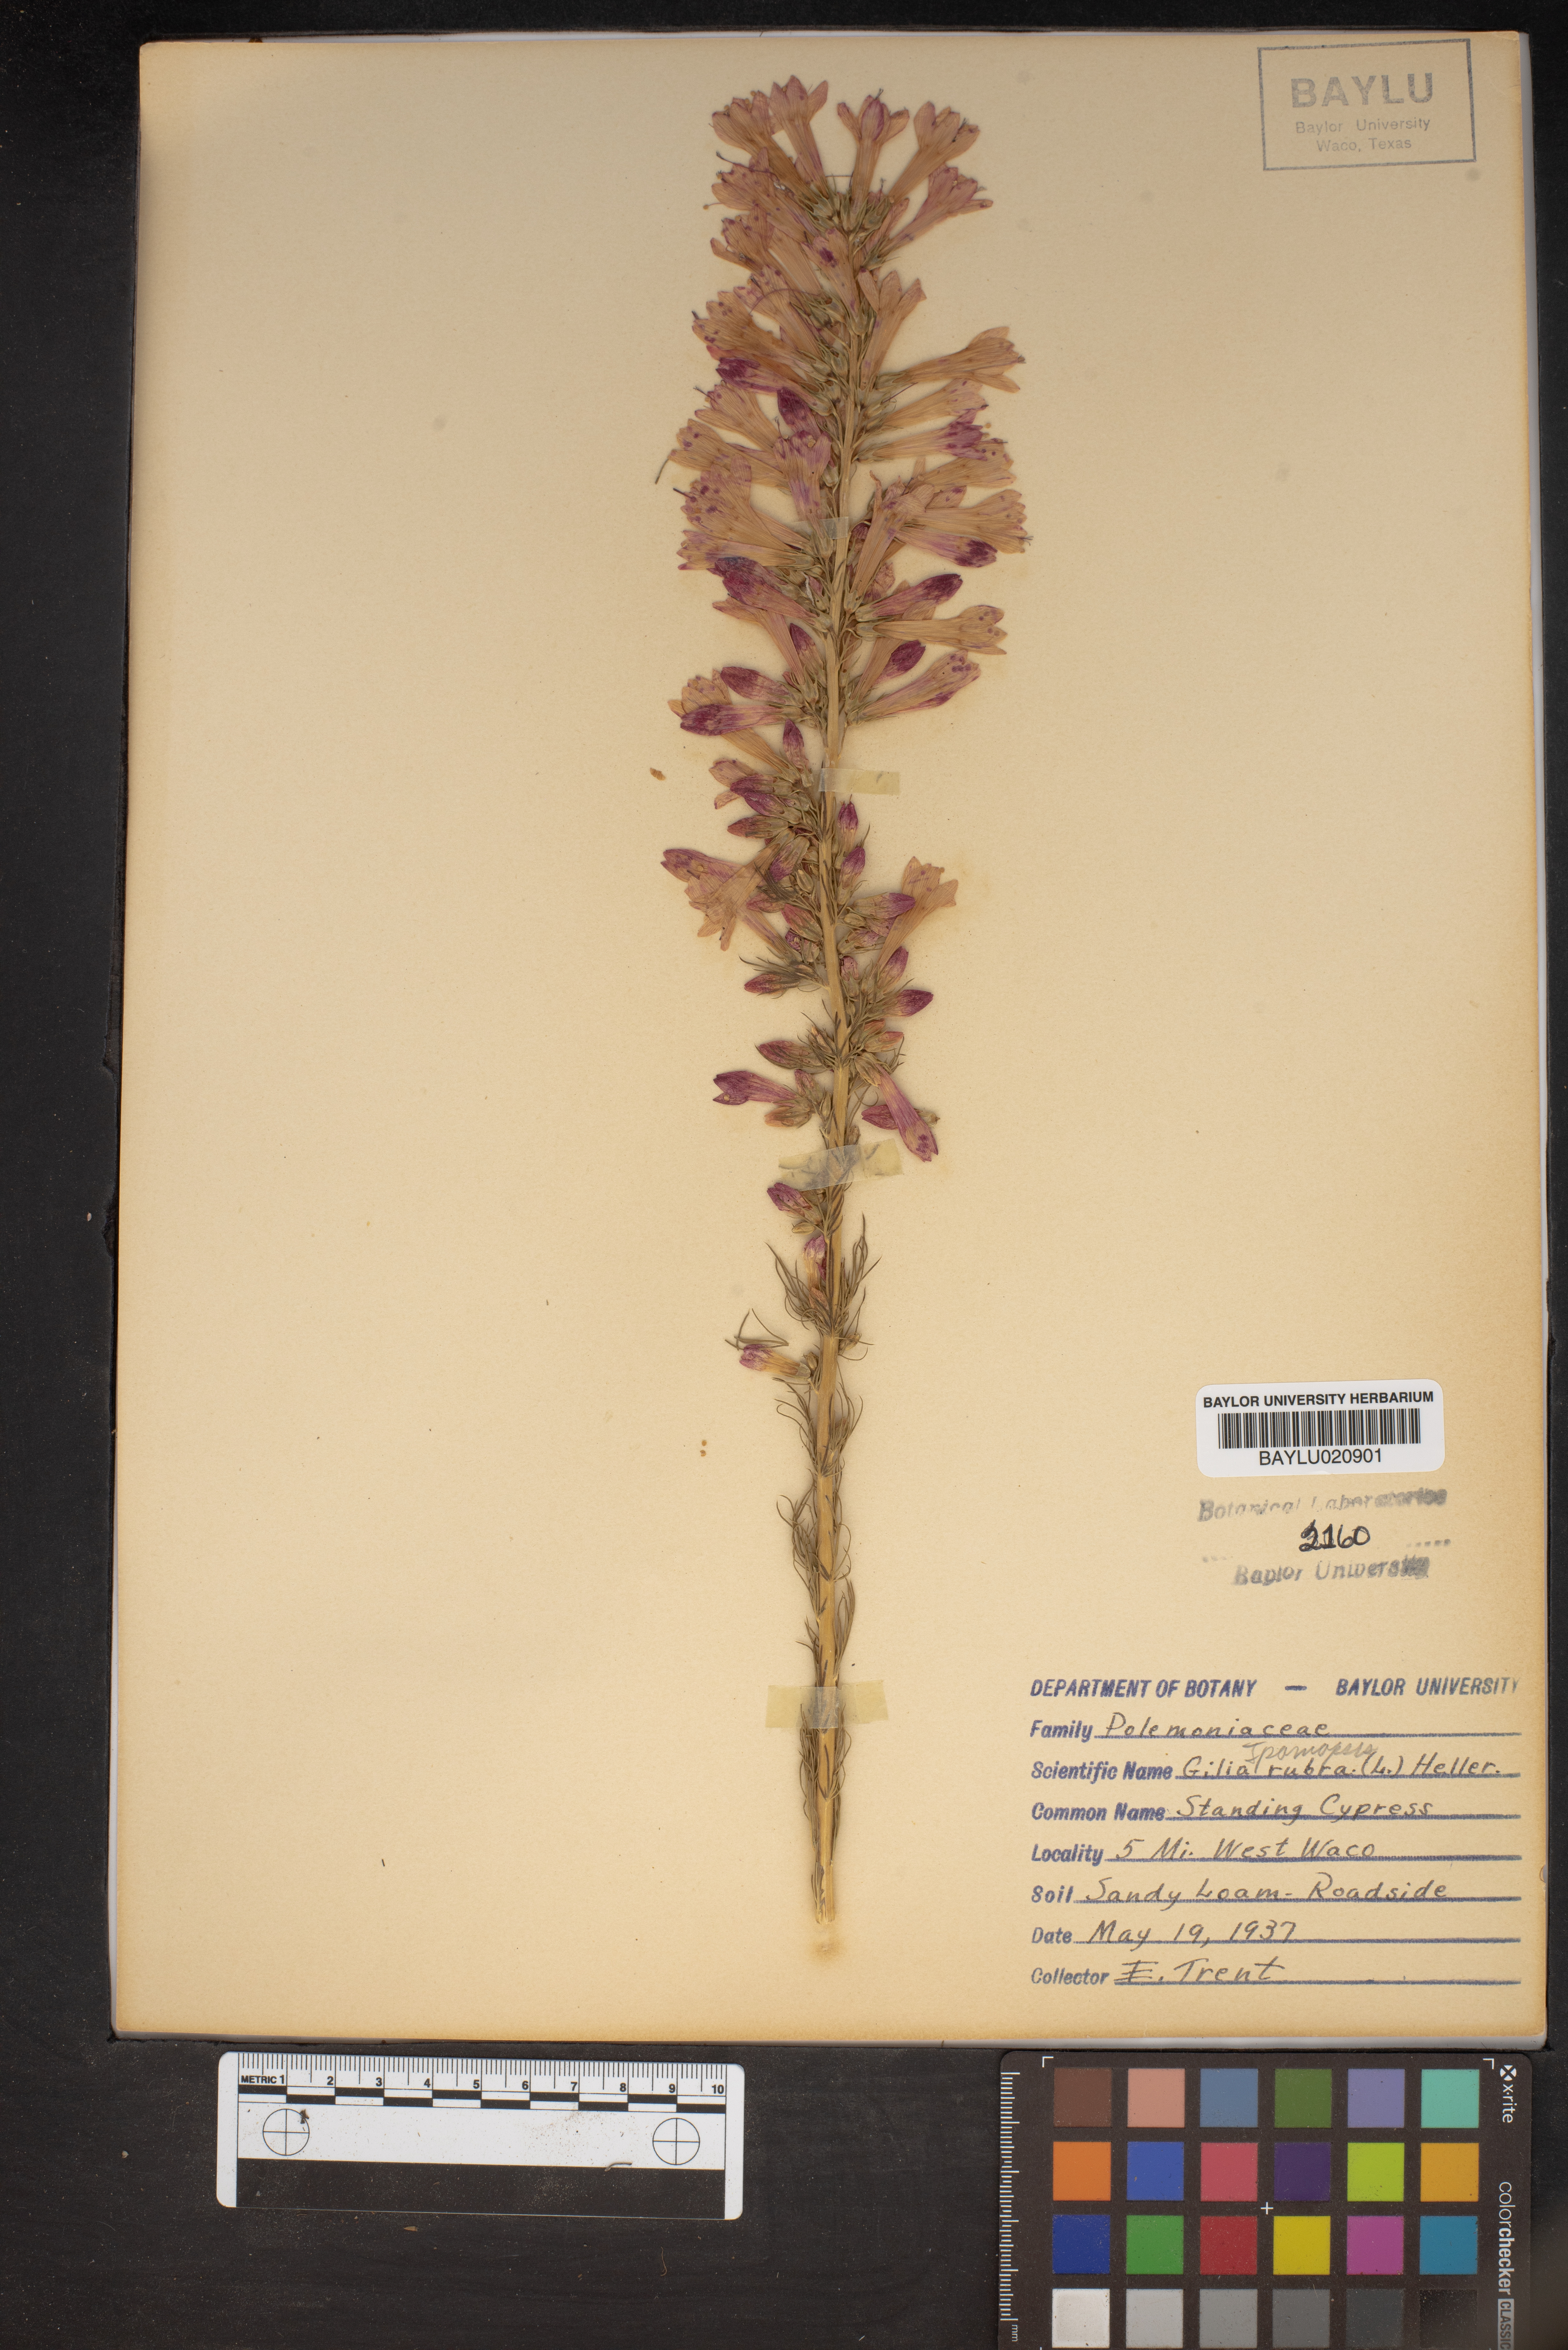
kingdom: Plantae
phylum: Tracheophyta
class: Magnoliopsida
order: Ericales
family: Polemoniaceae
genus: Ipomopsis
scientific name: Ipomopsis rubra
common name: Skyrocket
